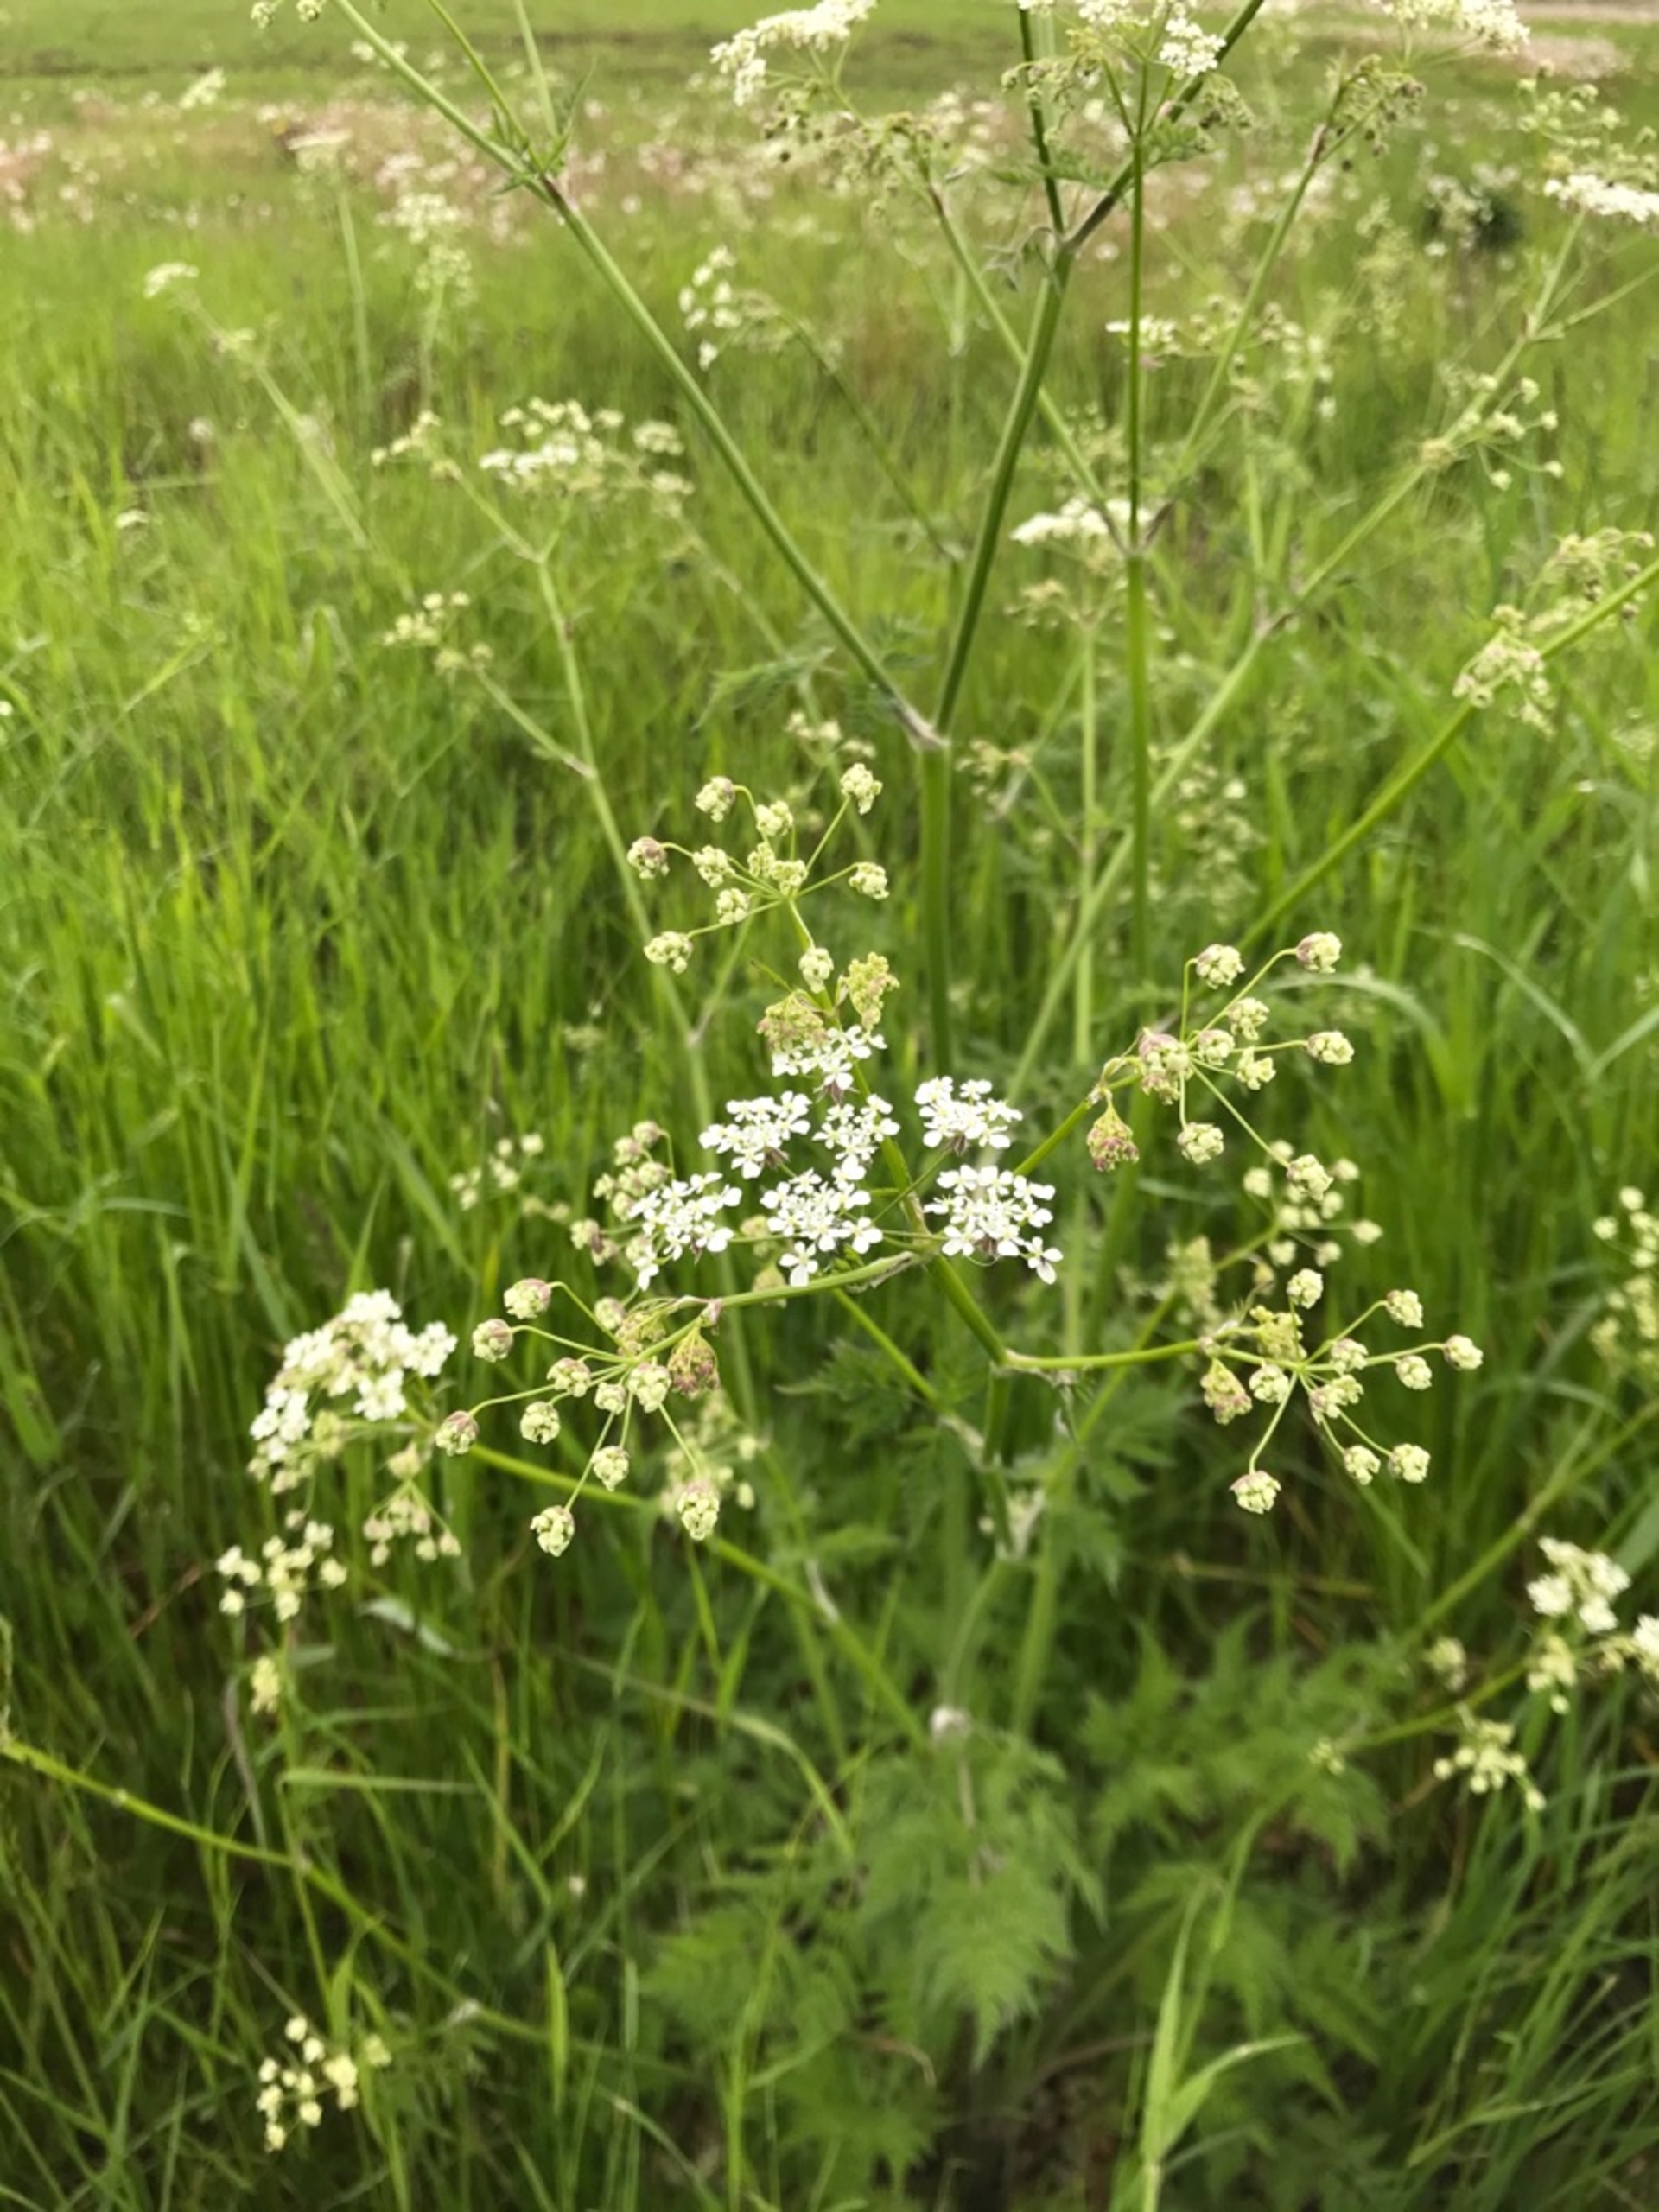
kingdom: Plantae
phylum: Tracheophyta
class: Magnoliopsida
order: Apiales
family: Apiaceae
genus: Anthriscus
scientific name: Anthriscus sylvestris
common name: Vild kørvel
